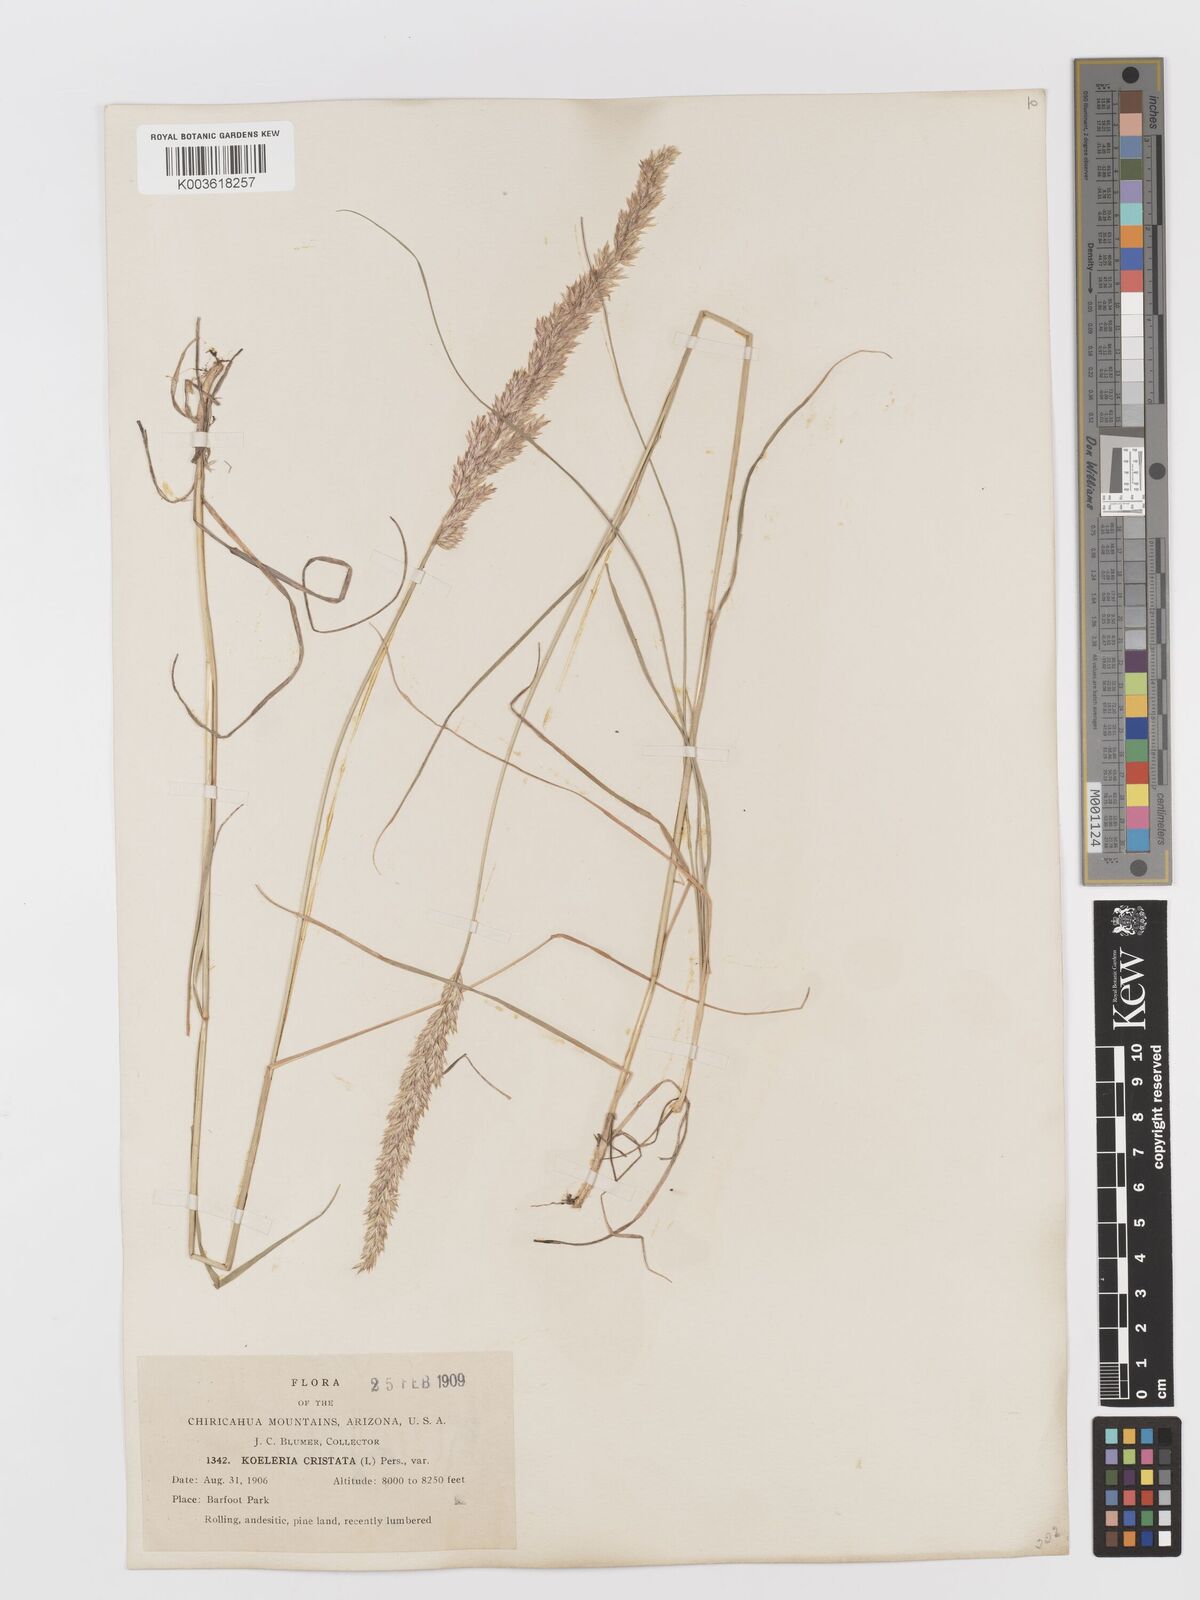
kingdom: Plantae
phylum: Tracheophyta
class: Liliopsida
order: Poales
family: Poaceae
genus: Koeleria
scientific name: Koeleria macrantha
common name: Crested hair-grass
